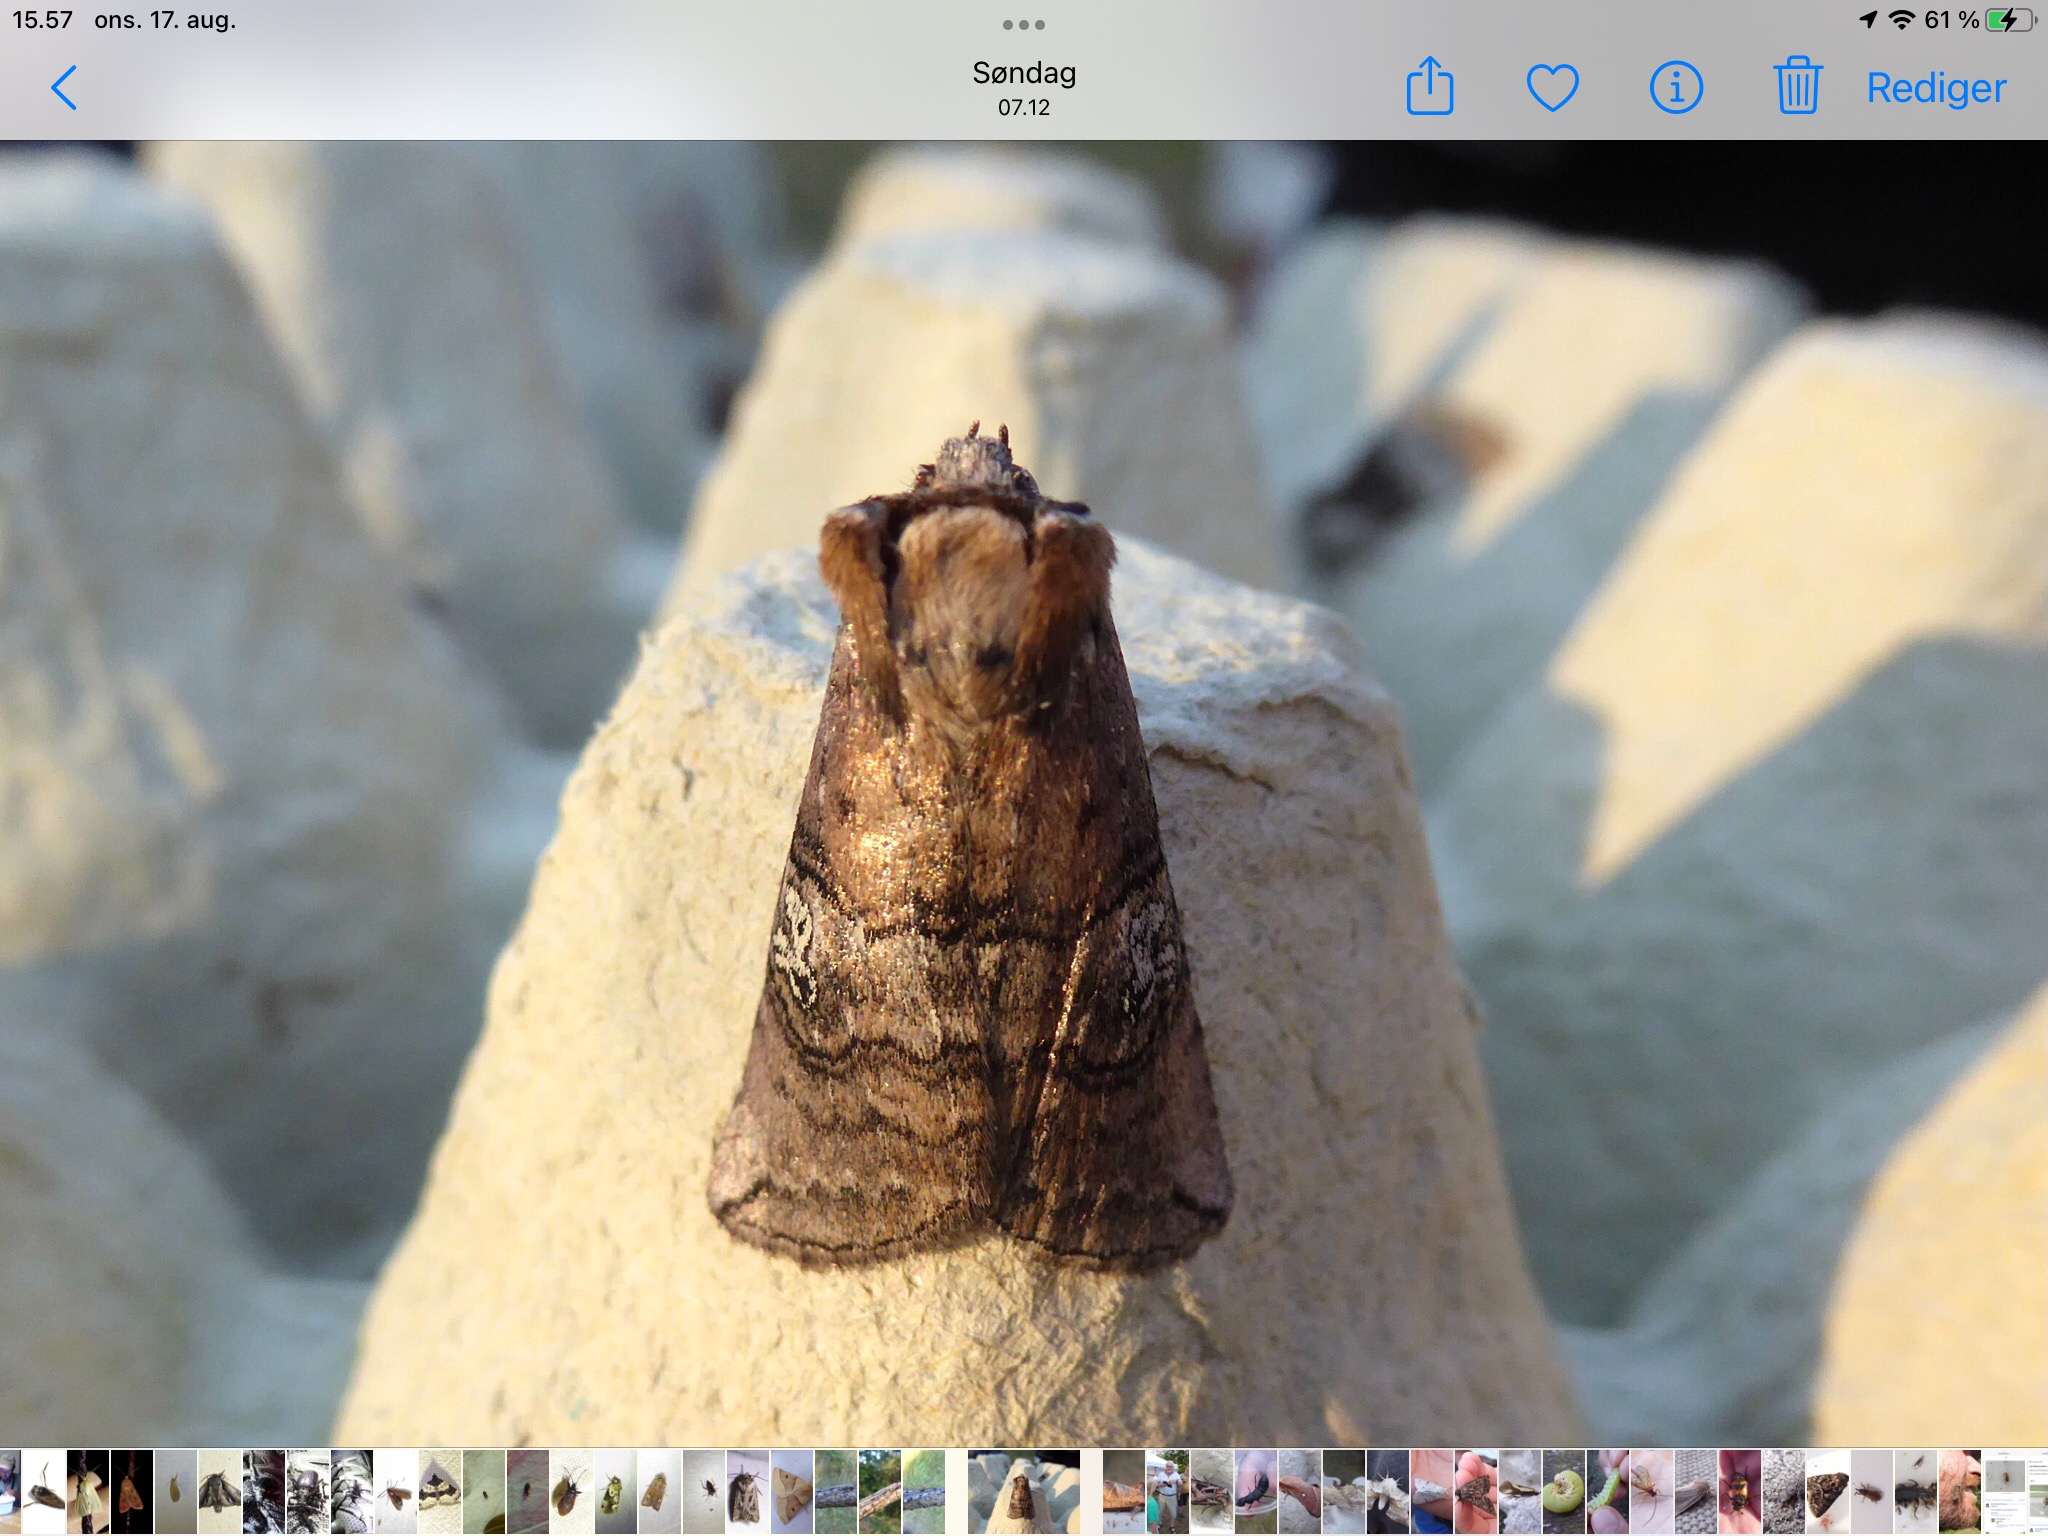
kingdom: Animalia
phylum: Arthropoda
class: Insecta
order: Lepidoptera
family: Drepanidae
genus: Tethea
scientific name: Tethea ocularis
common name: Brillespinder
